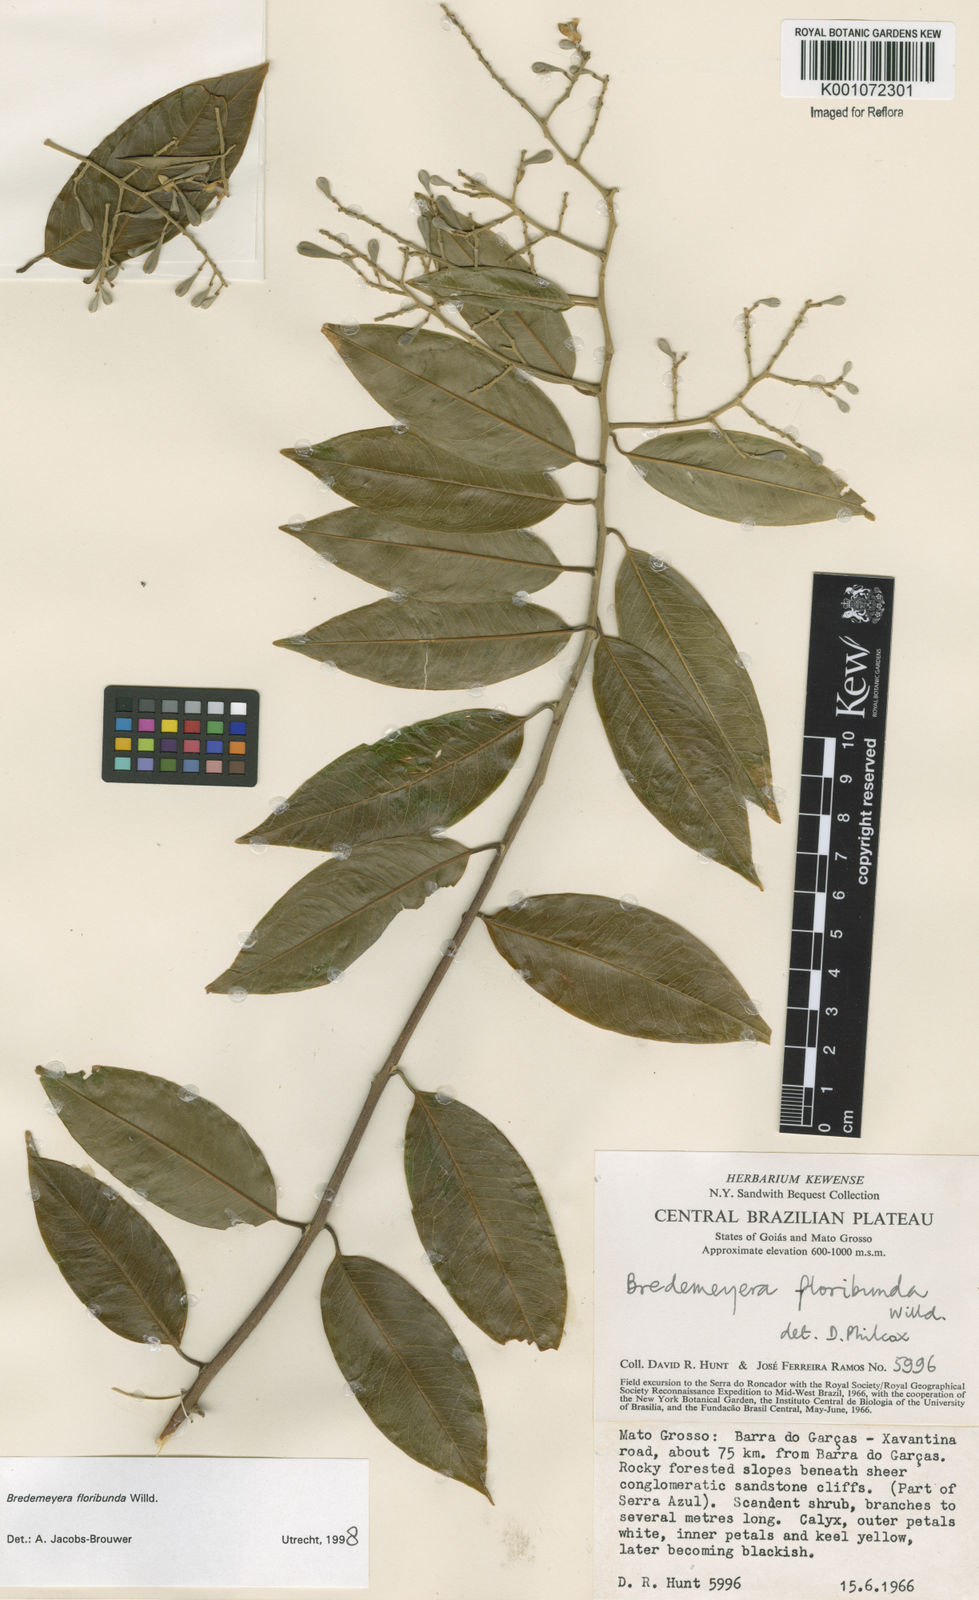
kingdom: Plantae
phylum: Tracheophyta
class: Magnoliopsida
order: Fabales
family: Polygalaceae
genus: Bredemeyera
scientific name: Bredemeyera floribunda
